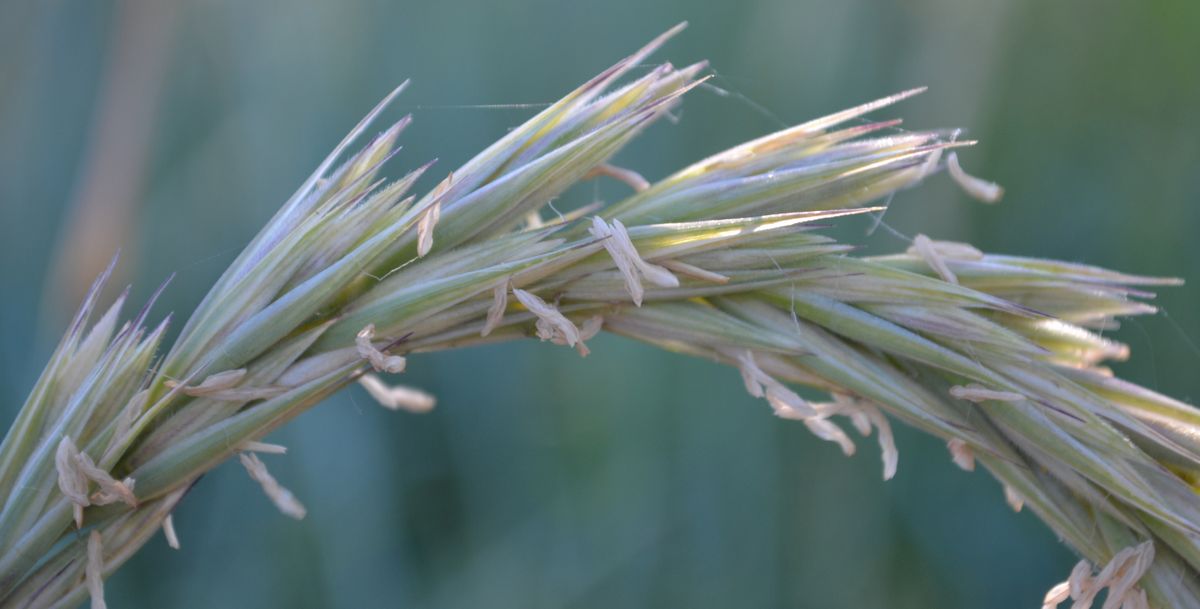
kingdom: Plantae
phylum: Tracheophyta
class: Liliopsida
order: Poales
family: Poaceae
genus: Leymus
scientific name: Leymus arenarius
